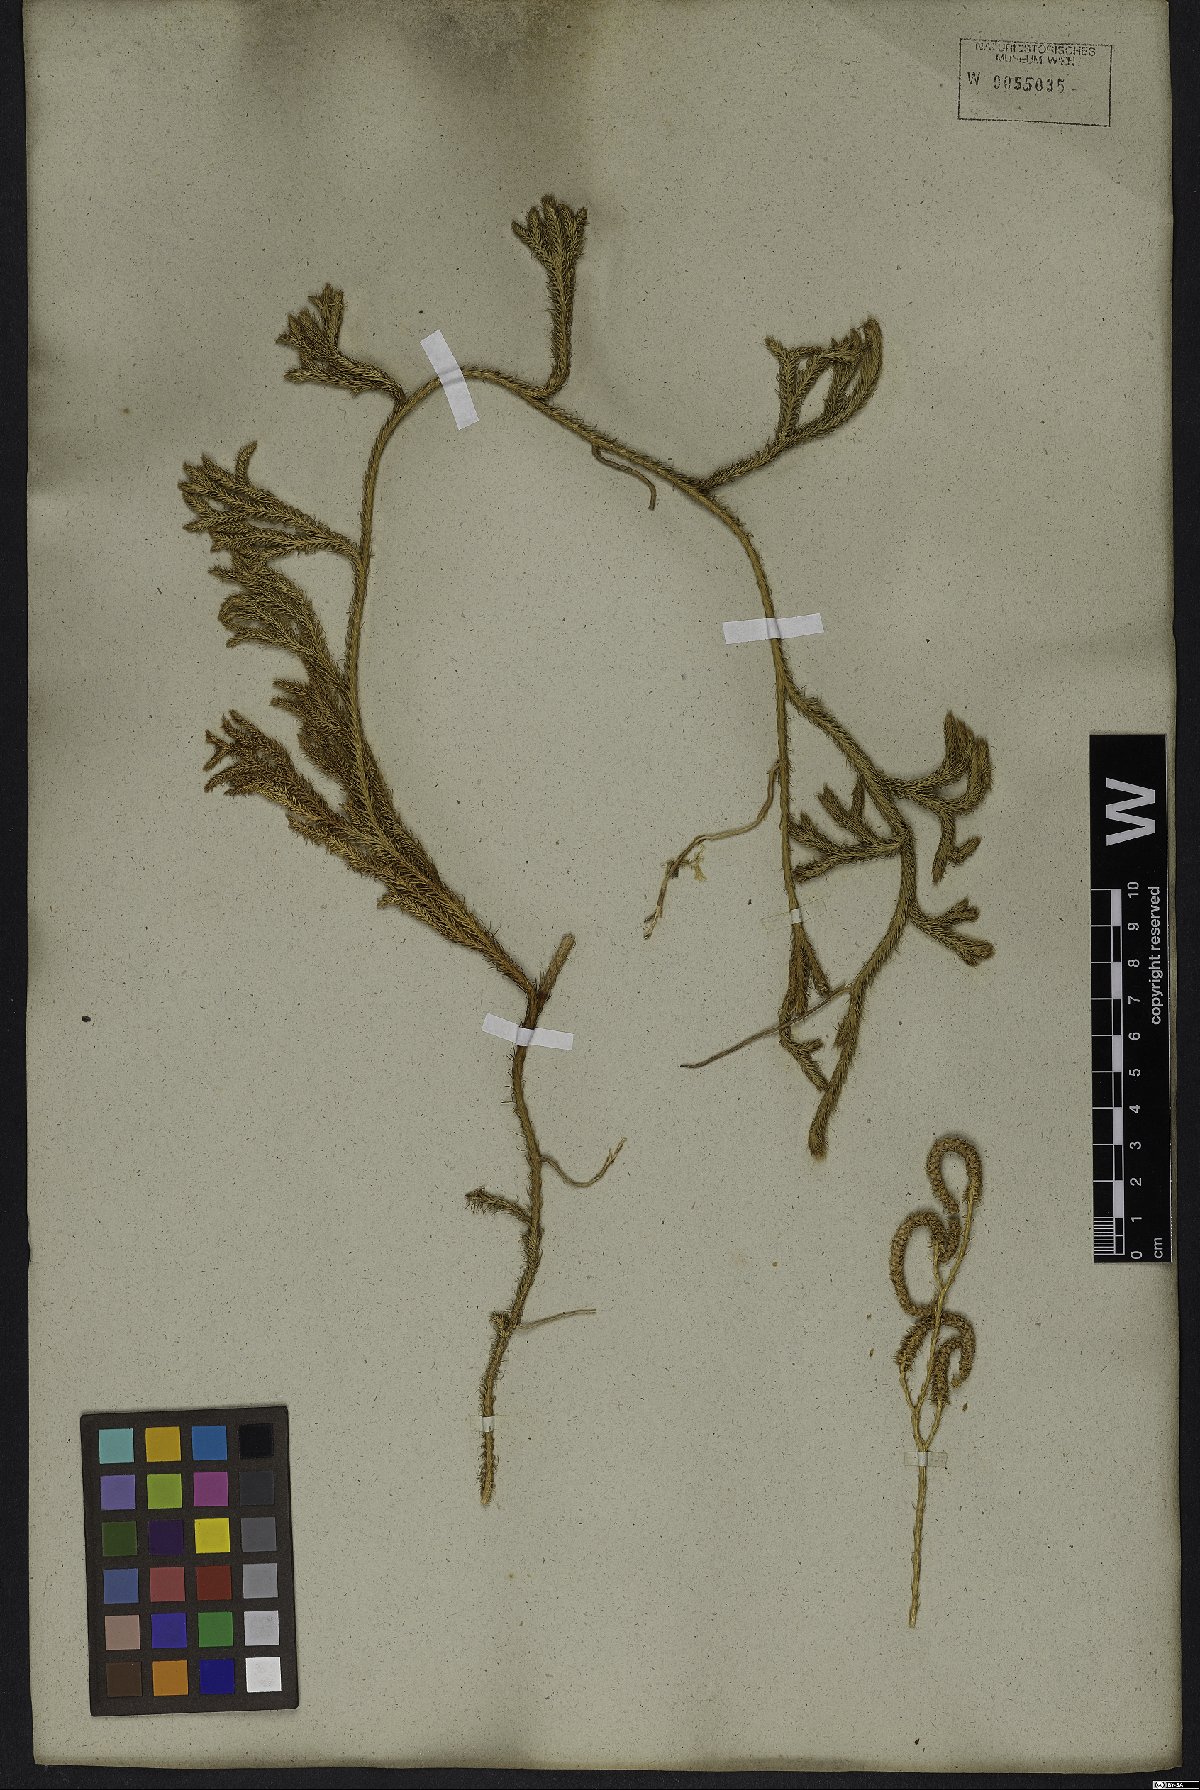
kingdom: Plantae
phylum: Tracheophyta
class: Lycopodiopsida
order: Lycopodiales
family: Lycopodiaceae
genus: Lycopodium
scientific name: Lycopodium clavatum
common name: Stag's-horn clubmoss
